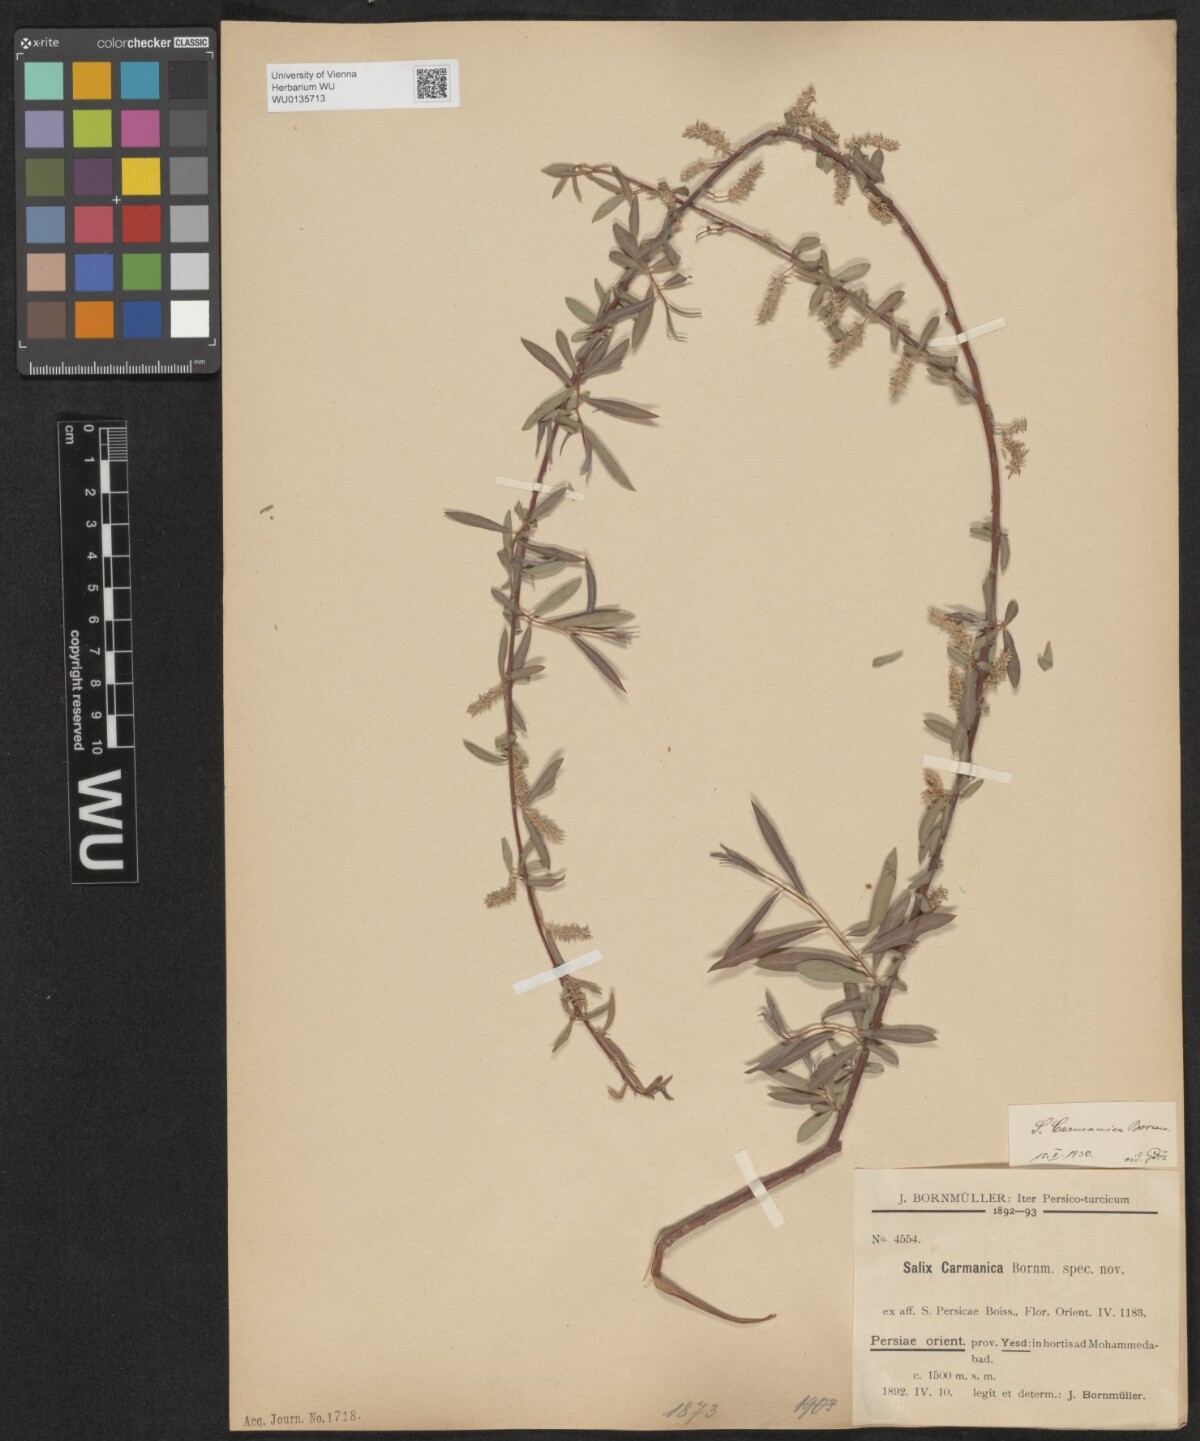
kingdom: Plantae
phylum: Tracheophyta
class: Magnoliopsida
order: Malpighiales
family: Salicaceae
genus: Salix
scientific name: Salix carmanica
